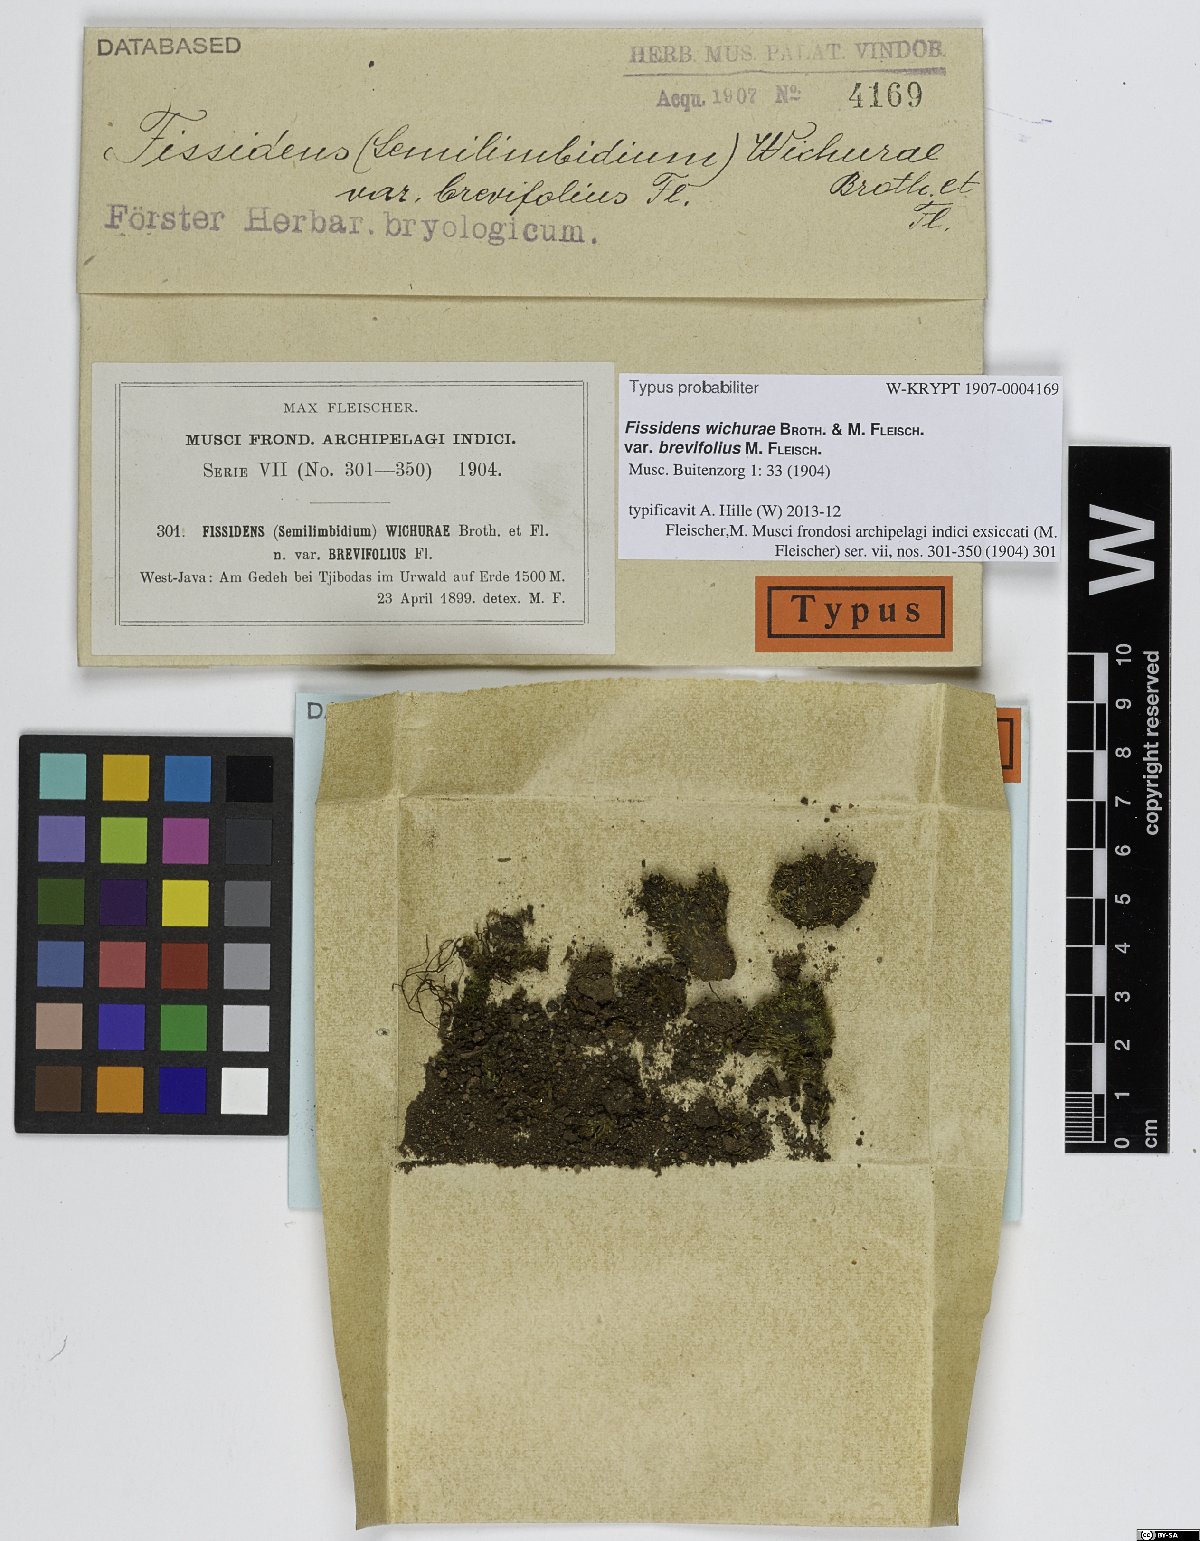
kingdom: Plantae
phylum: Bryophyta
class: Bryopsida
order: Dicranales
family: Fissidentaceae
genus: Fissidens
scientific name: Fissidens wichurae
